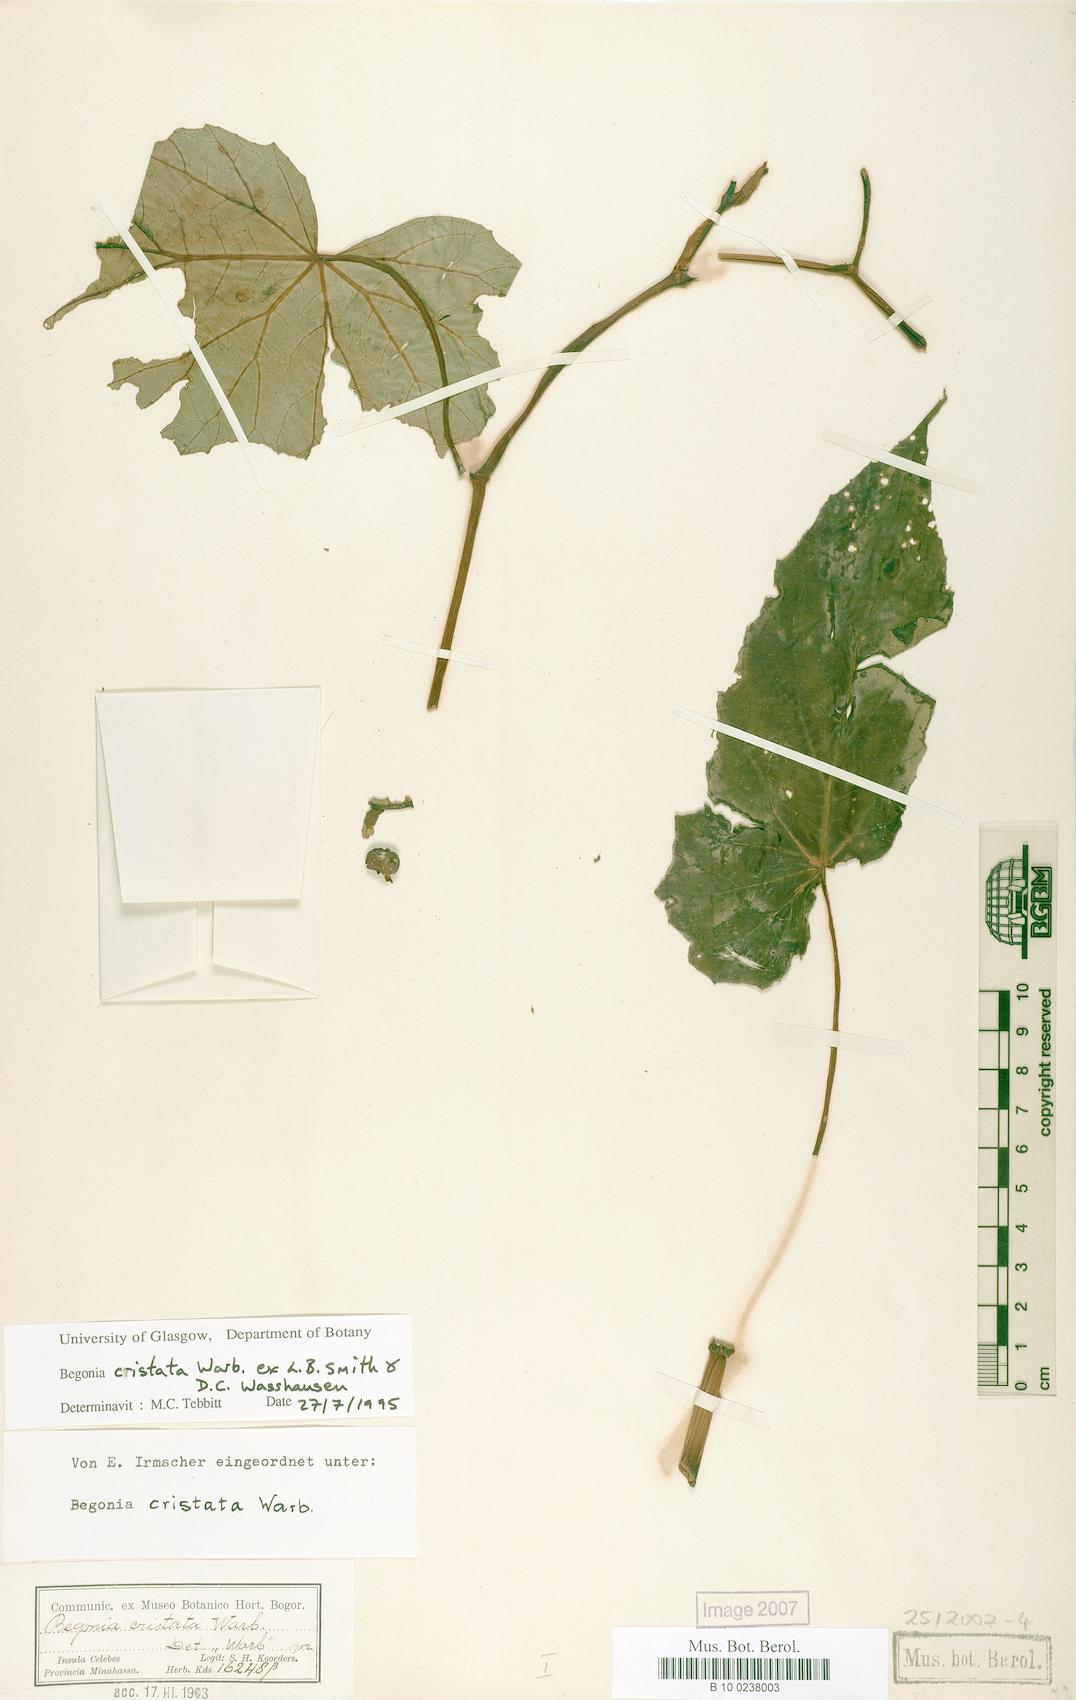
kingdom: Plantae
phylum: Tracheophyta
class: Magnoliopsida
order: Cucurbitales
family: Begoniaceae
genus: Begonia
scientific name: Begonia aptera
